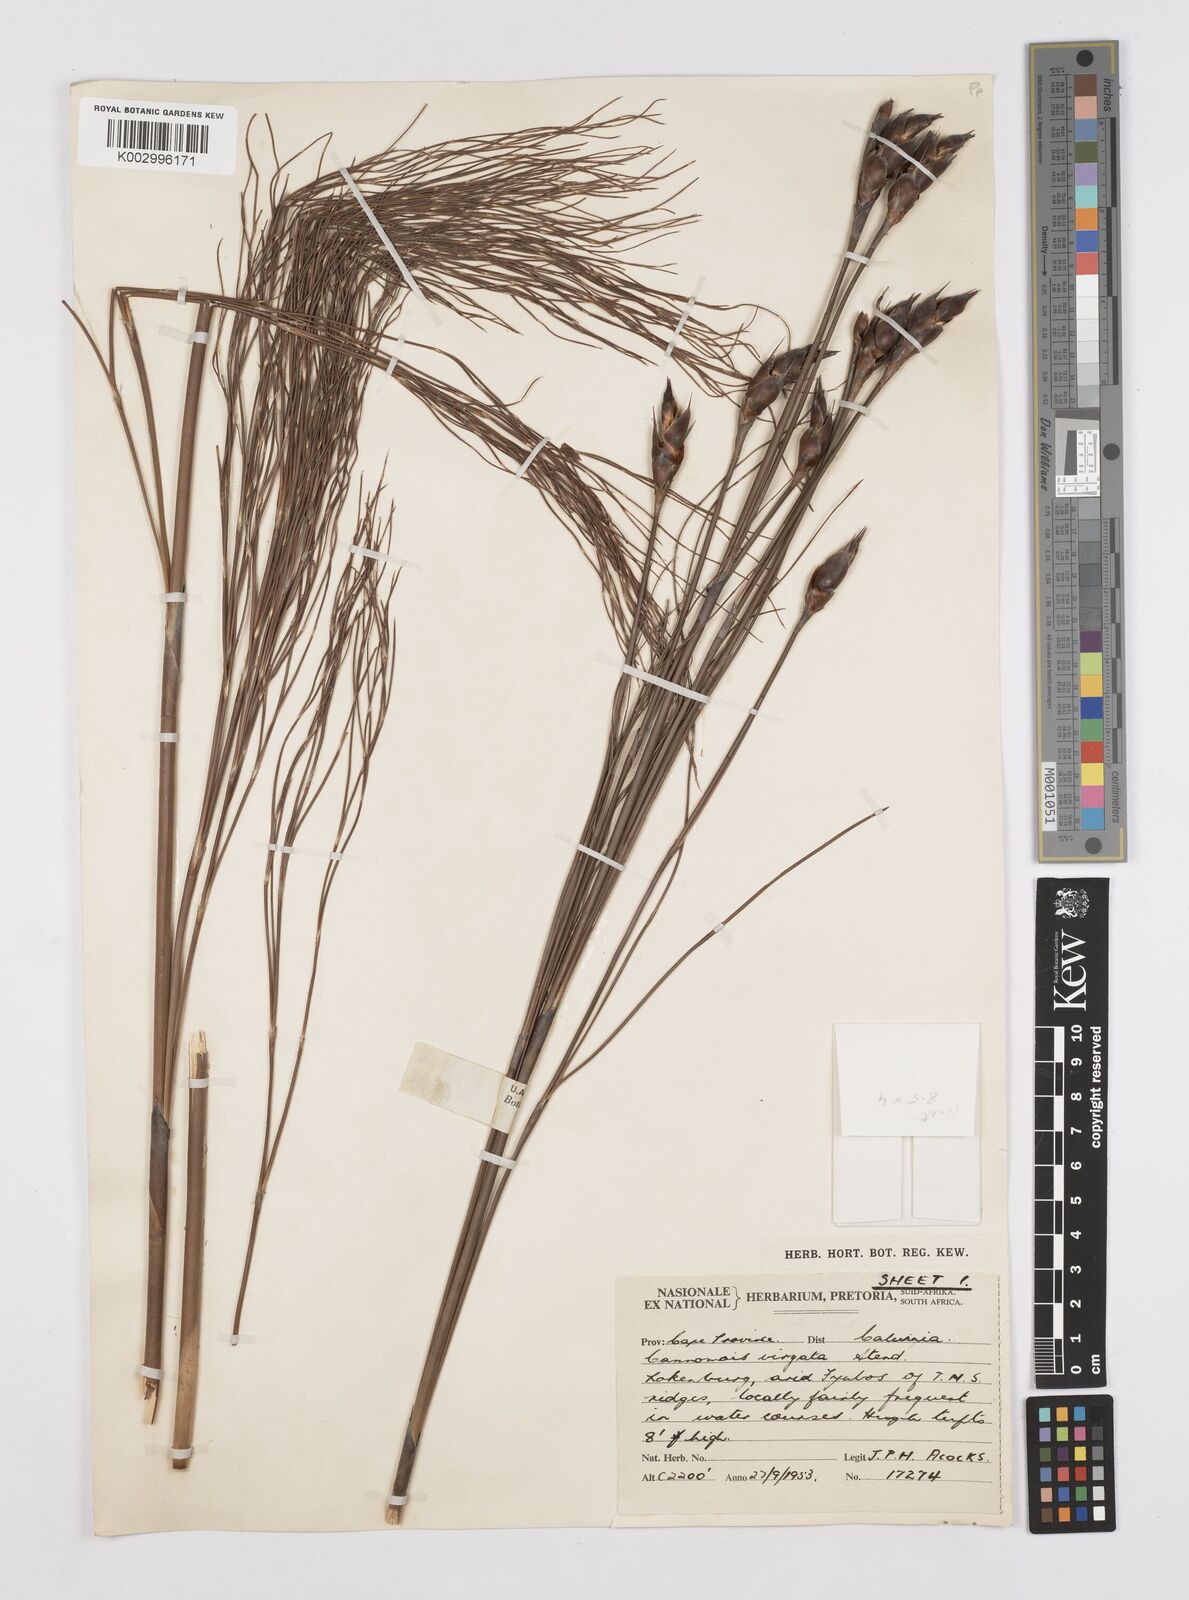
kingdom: Plantae
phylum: Tracheophyta
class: Liliopsida
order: Poales
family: Restionaceae
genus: Cannomois
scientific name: Cannomois virgata
